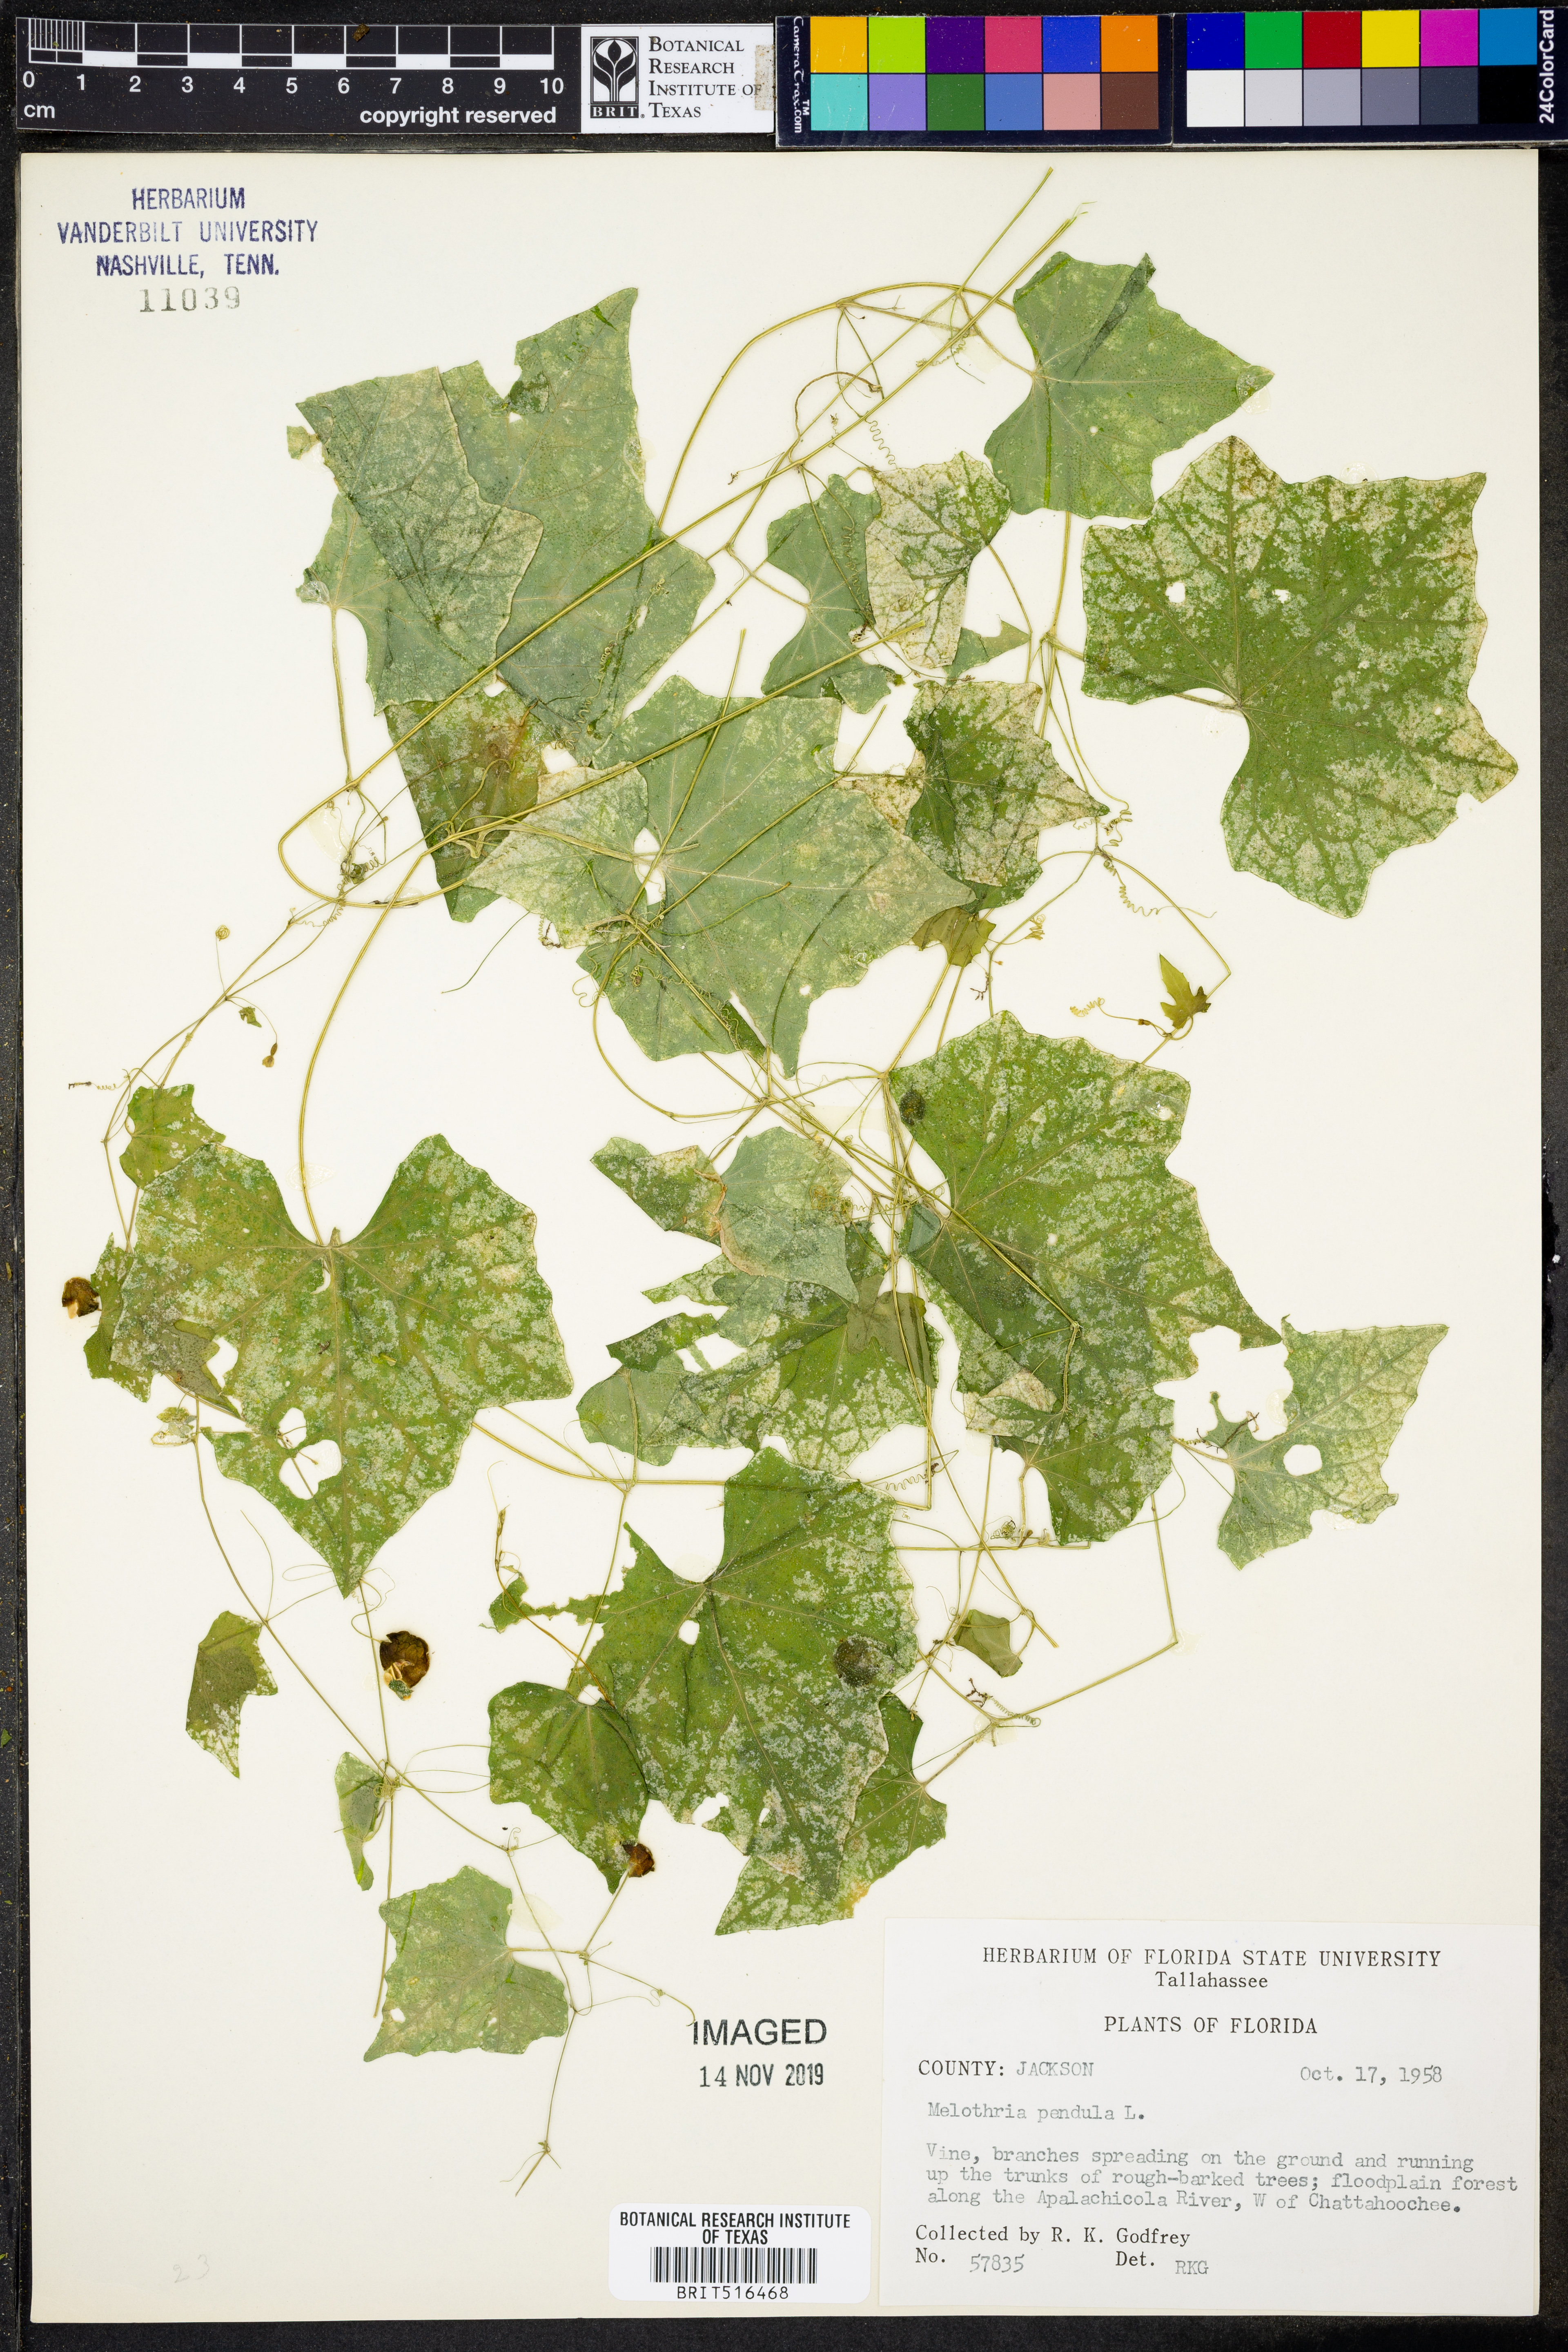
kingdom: Plantae
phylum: Tracheophyta
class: Magnoliopsida
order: Cucurbitales
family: Cucurbitaceae
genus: Melothria
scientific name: Melothria pendula
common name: Creeping-cucumber
